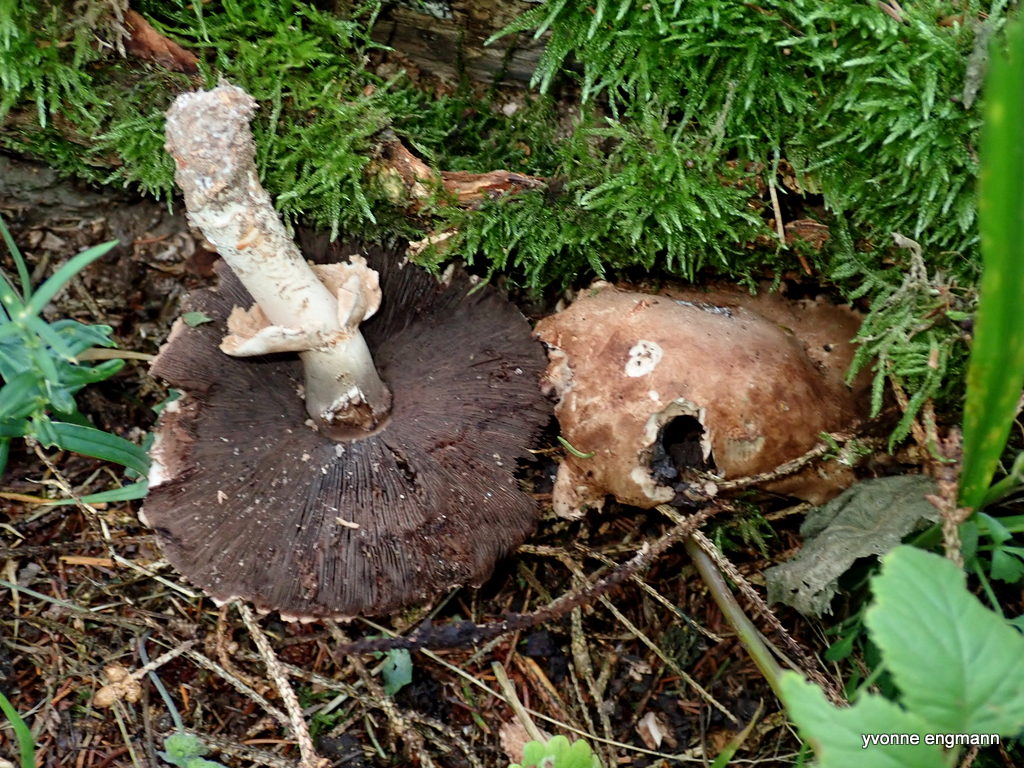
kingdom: Fungi
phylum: Basidiomycota
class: Agaricomycetes
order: Agaricales
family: Agaricaceae
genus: Agaricus
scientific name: Agaricus
